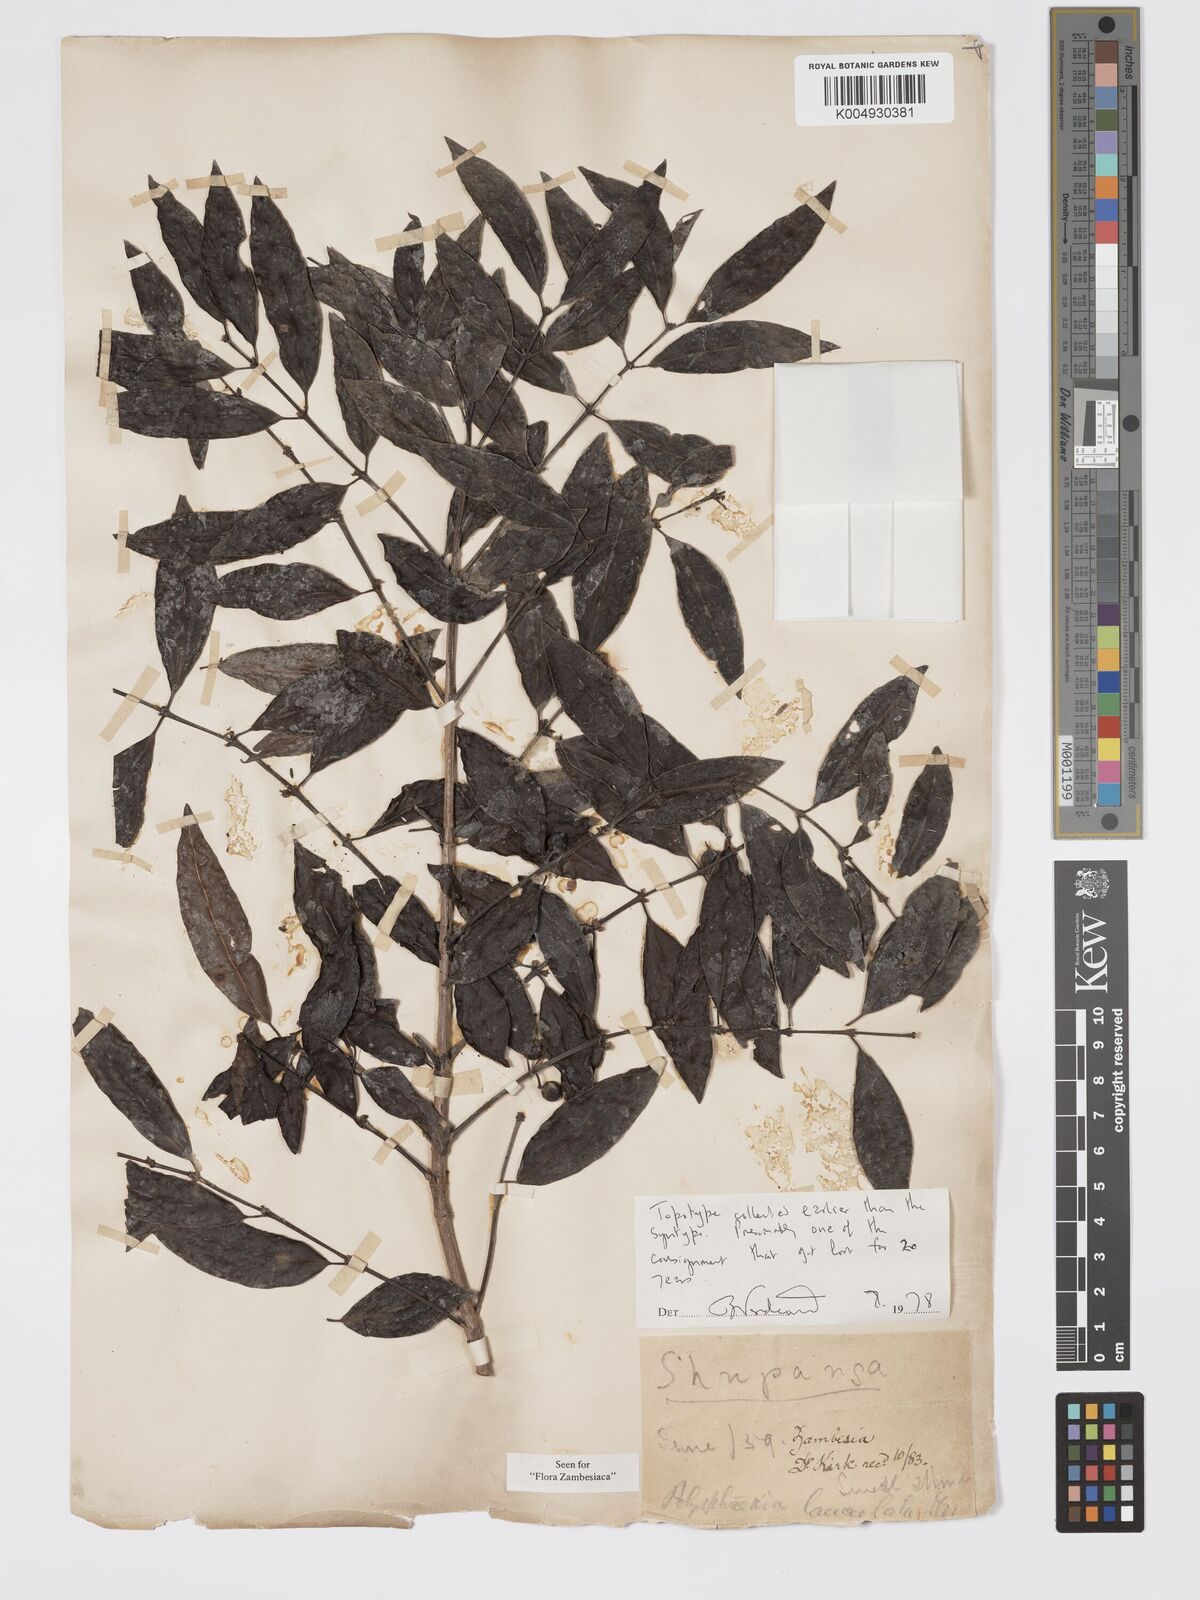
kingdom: Plantae
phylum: Tracheophyta
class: Magnoliopsida
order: Gentianales
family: Rubiaceae
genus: Polysphaeria
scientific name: Polysphaeria lanceolata
